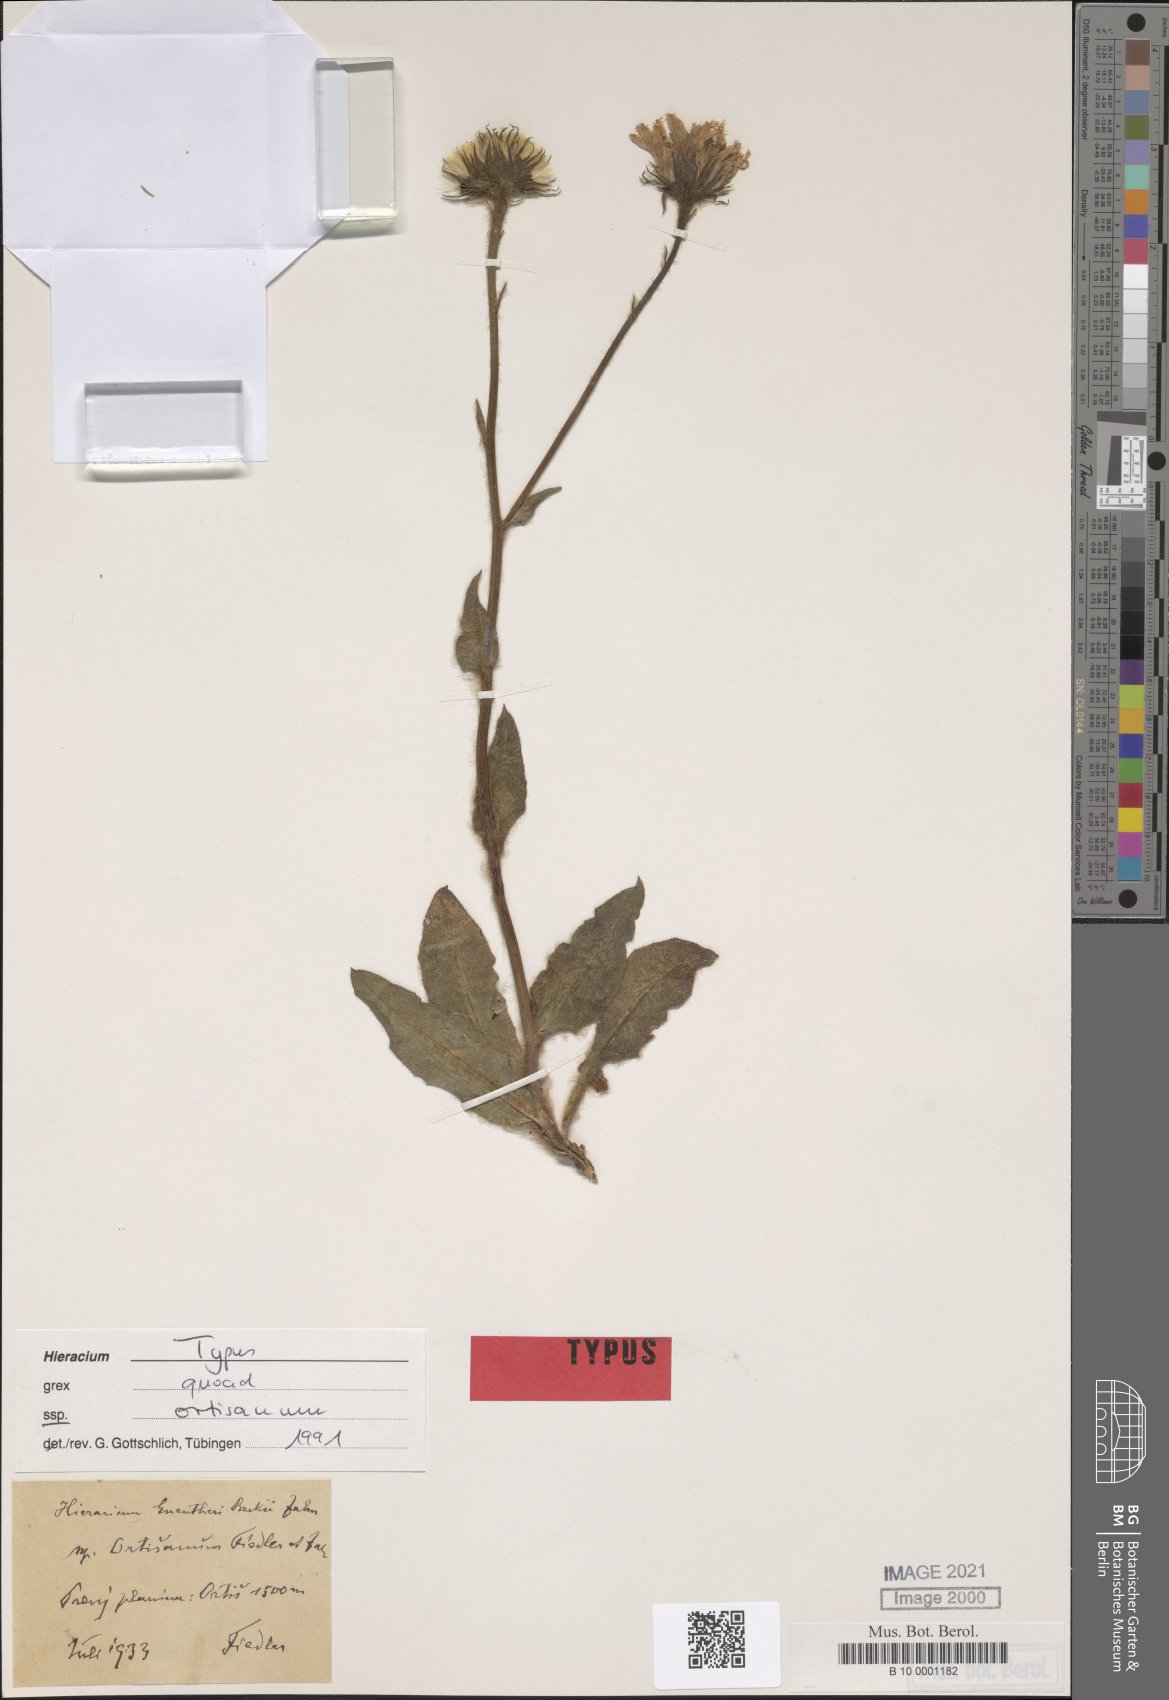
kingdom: Plantae
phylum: Tracheophyta
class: Magnoliopsida
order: Asterales
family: Asteraceae
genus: Hieracium
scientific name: Hieracium guentheri-beckii
